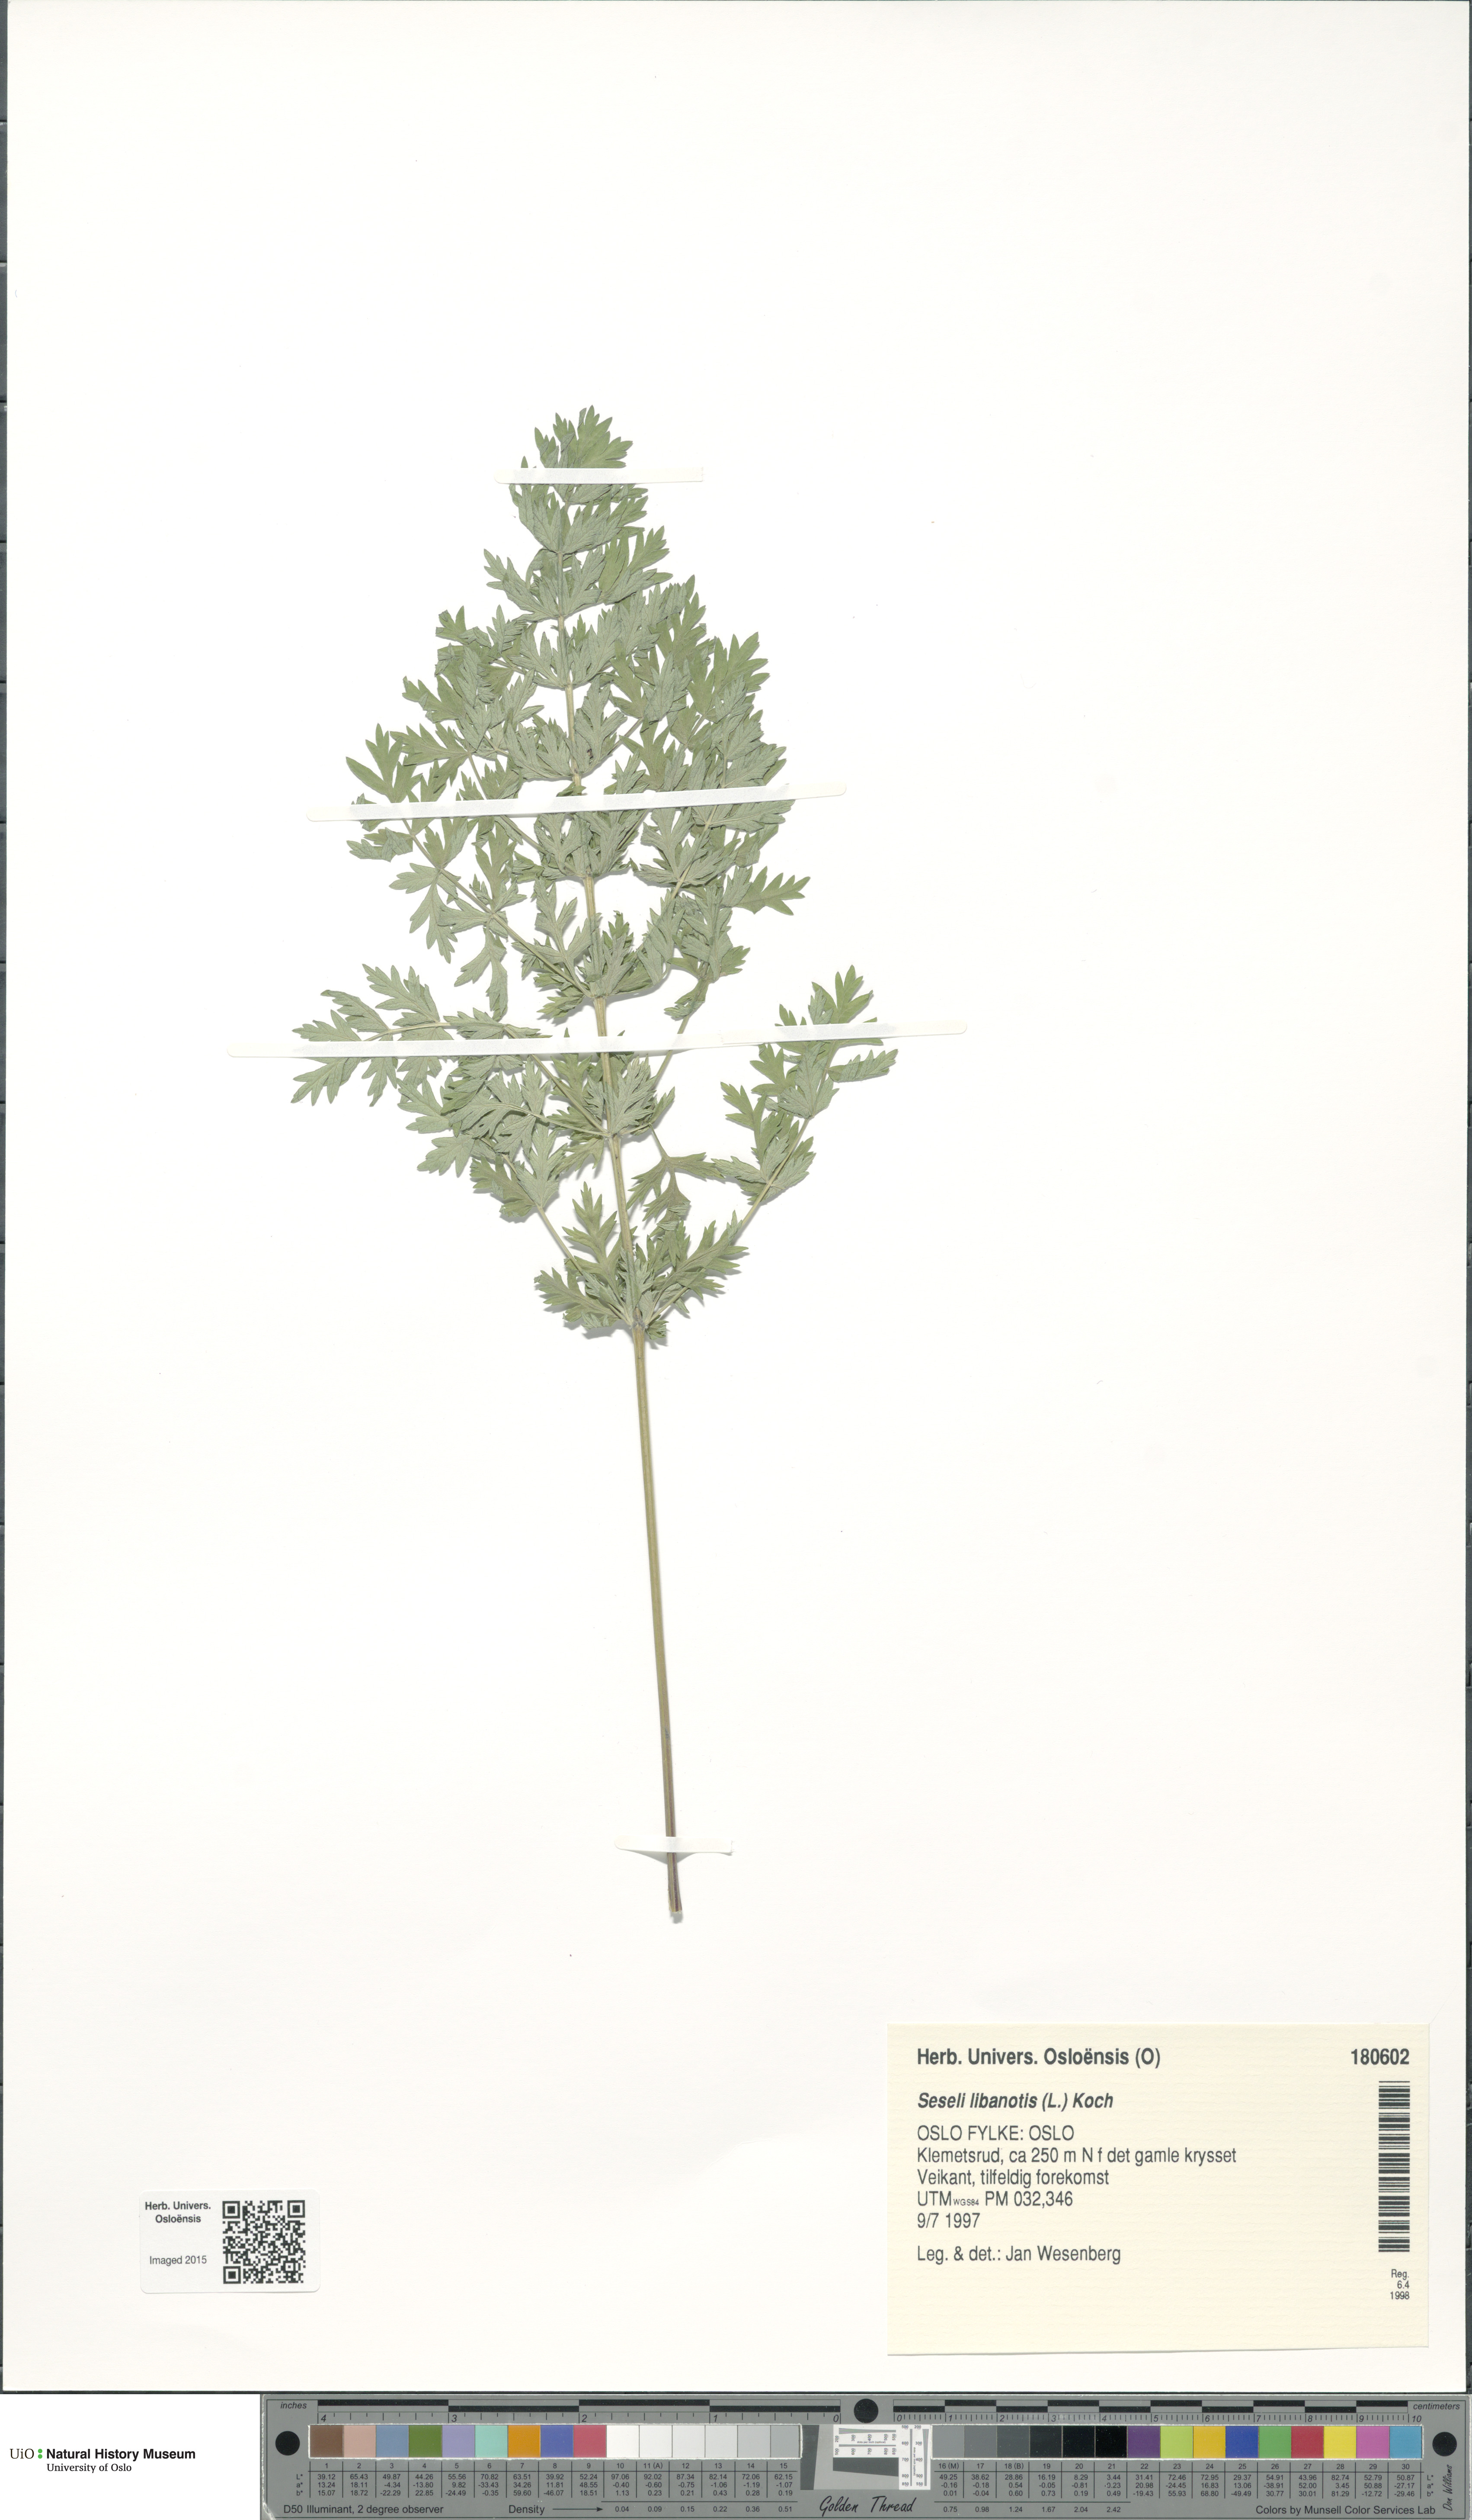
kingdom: Plantae
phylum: Tracheophyta
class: Magnoliopsida
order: Apiales
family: Apiaceae
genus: Seseli
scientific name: Seseli libanotis
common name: Mooncarrot
